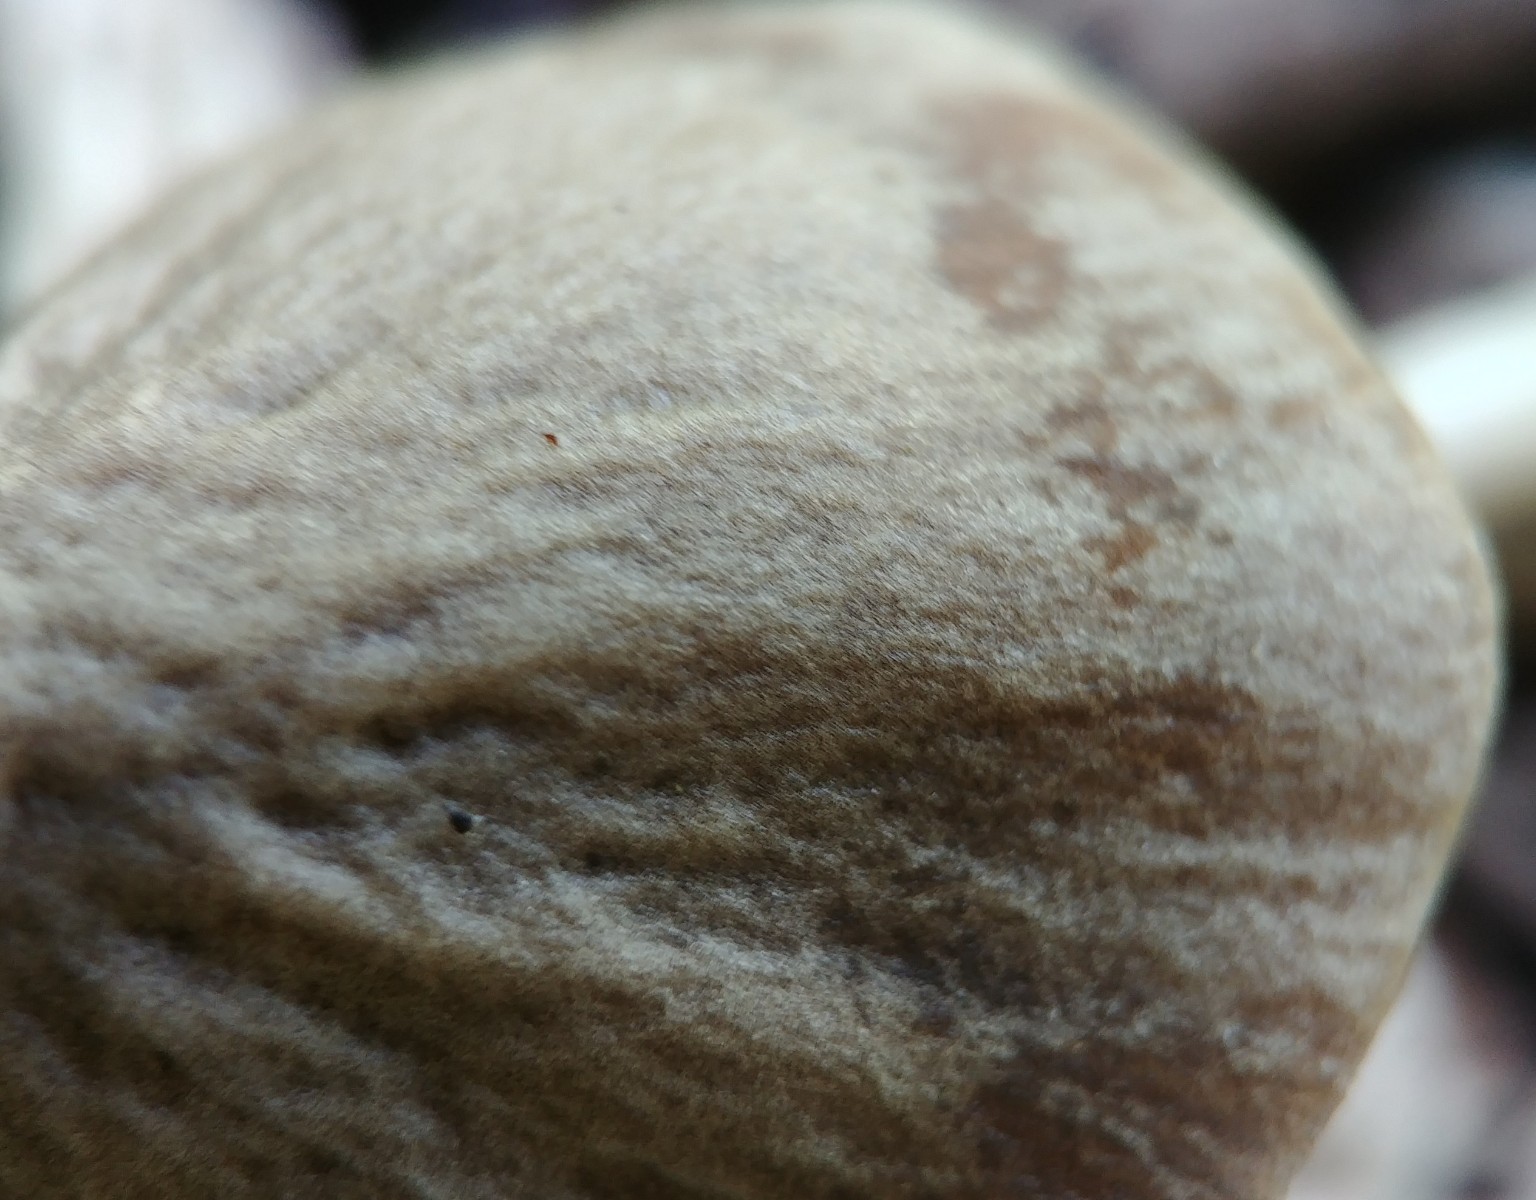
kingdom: Fungi
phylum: Basidiomycota
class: Agaricomycetes
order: Agaricales
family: Psathyrellaceae
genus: Psathyrella
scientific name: Psathyrella
